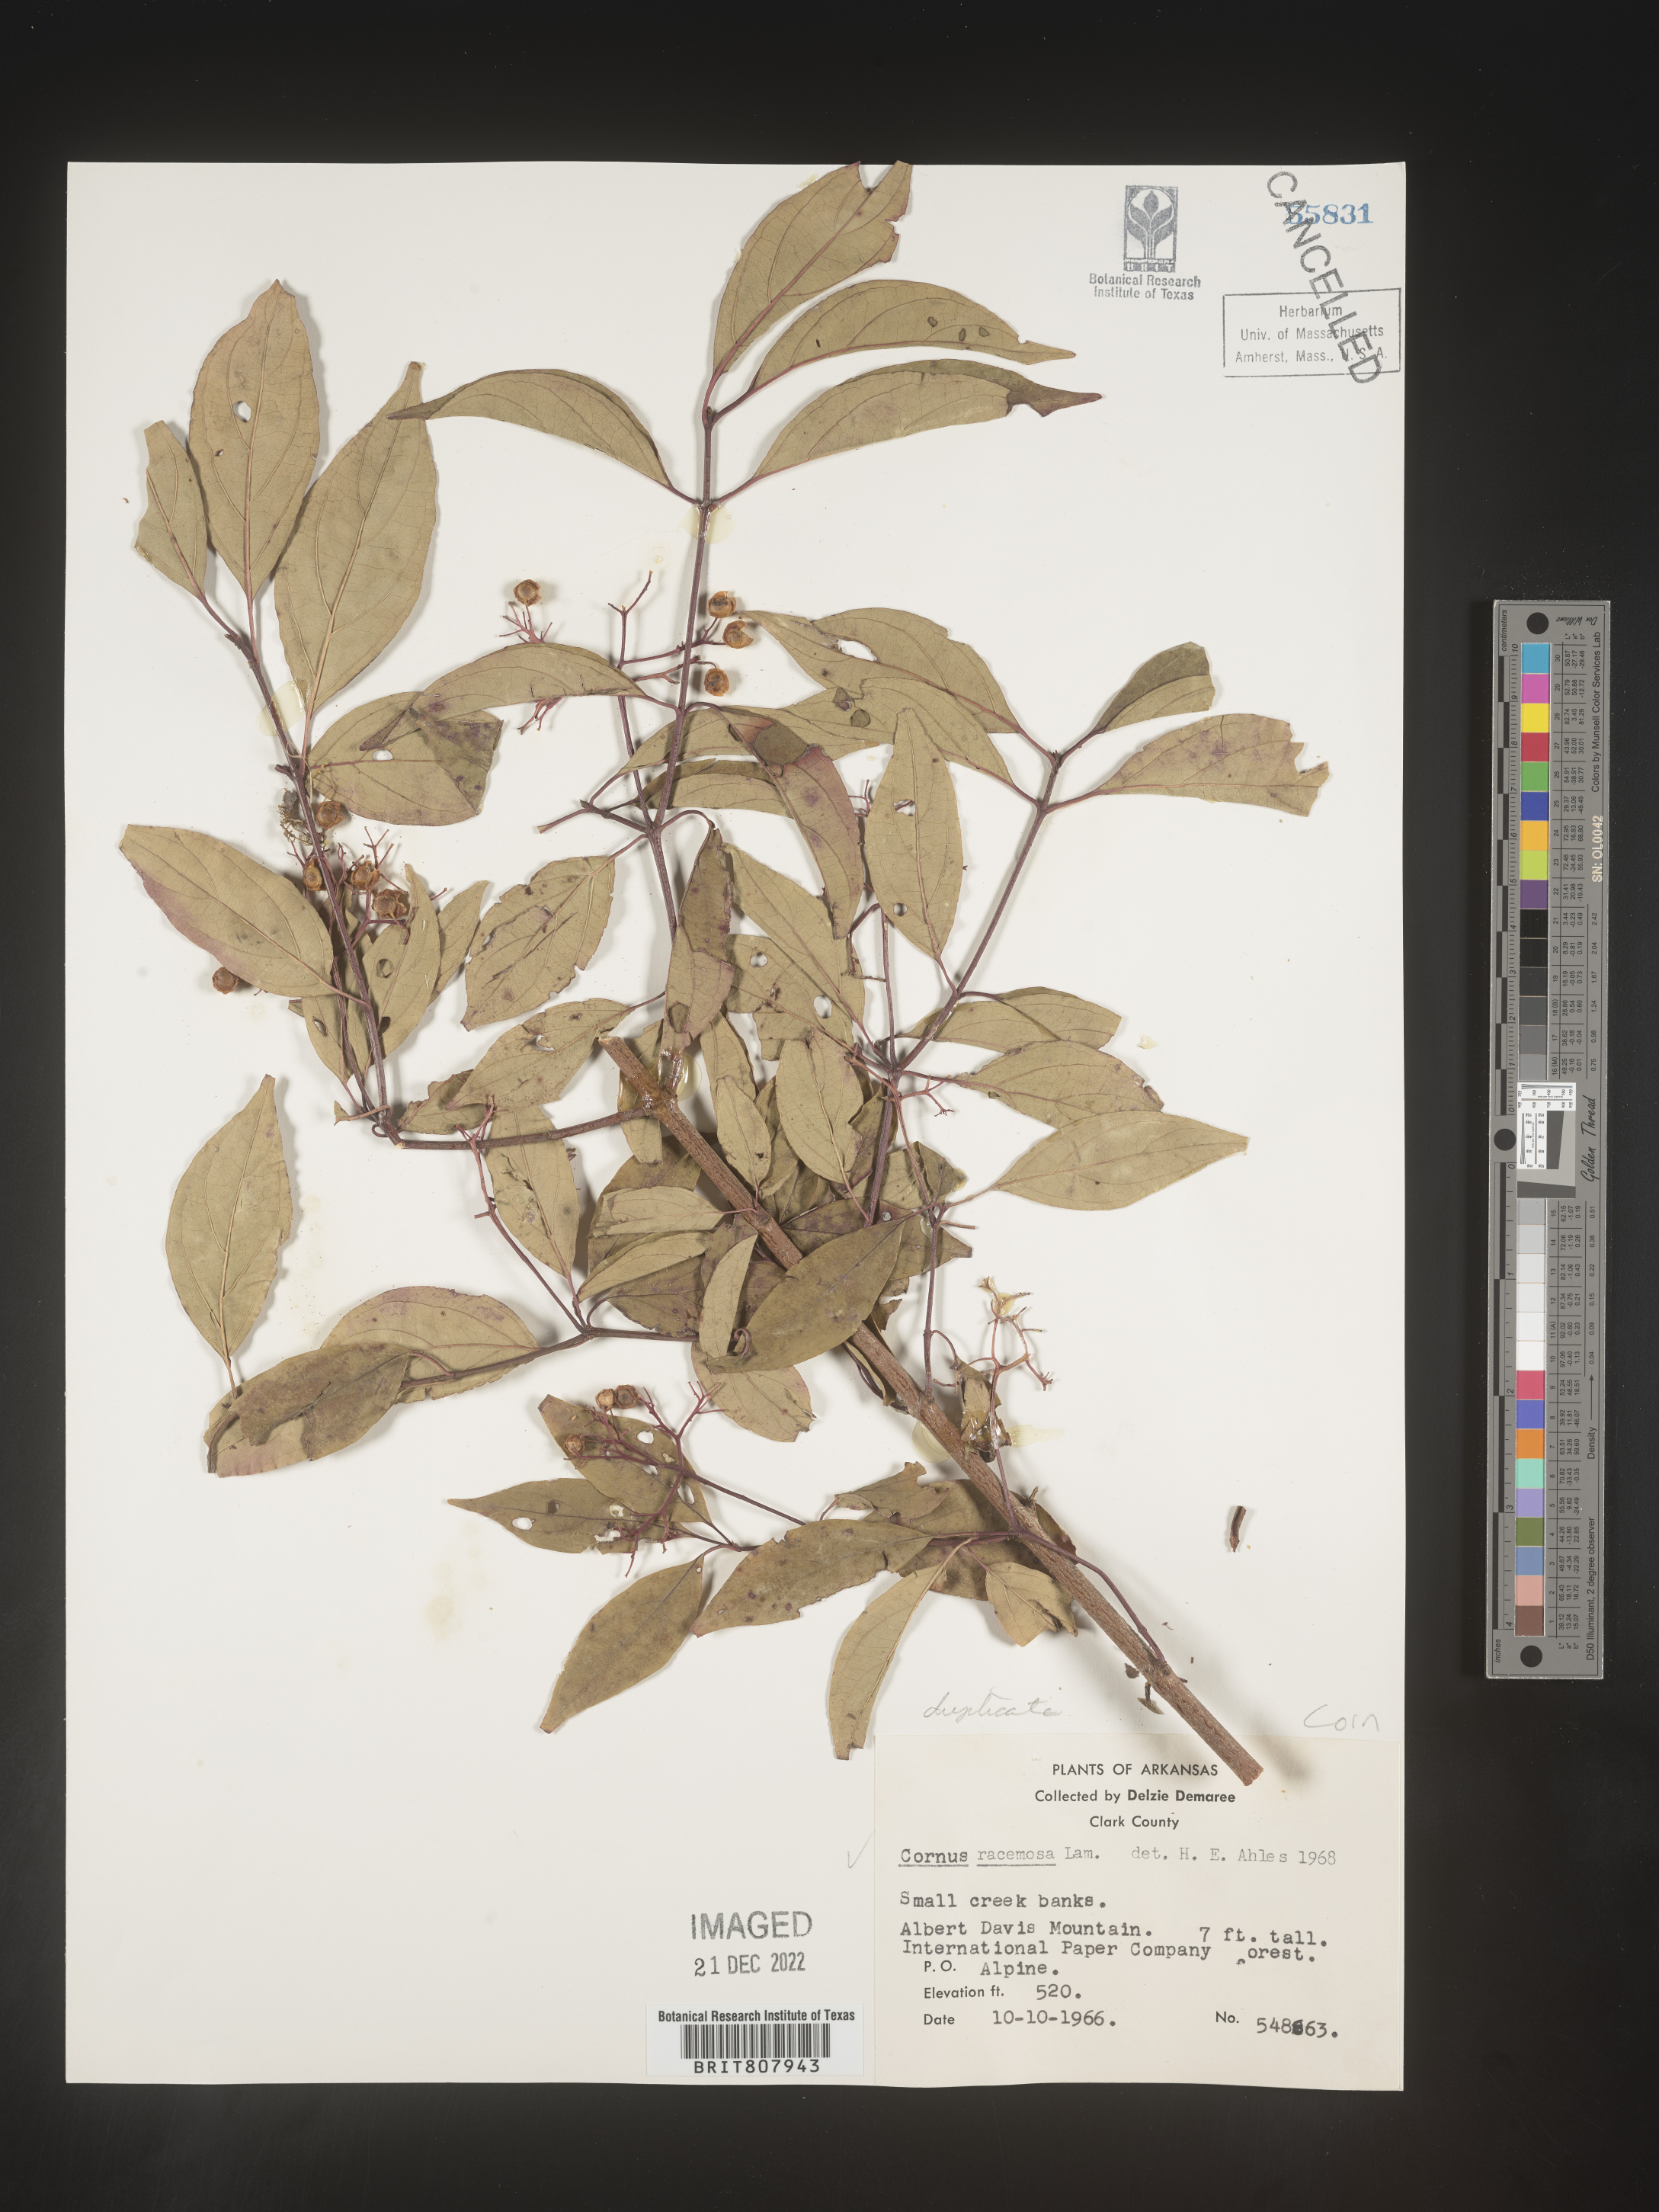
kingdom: Plantae
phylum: Tracheophyta
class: Magnoliopsida
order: Cornales
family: Cornaceae
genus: Cornus
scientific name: Cornus racemosa
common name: Panicled dogwood
